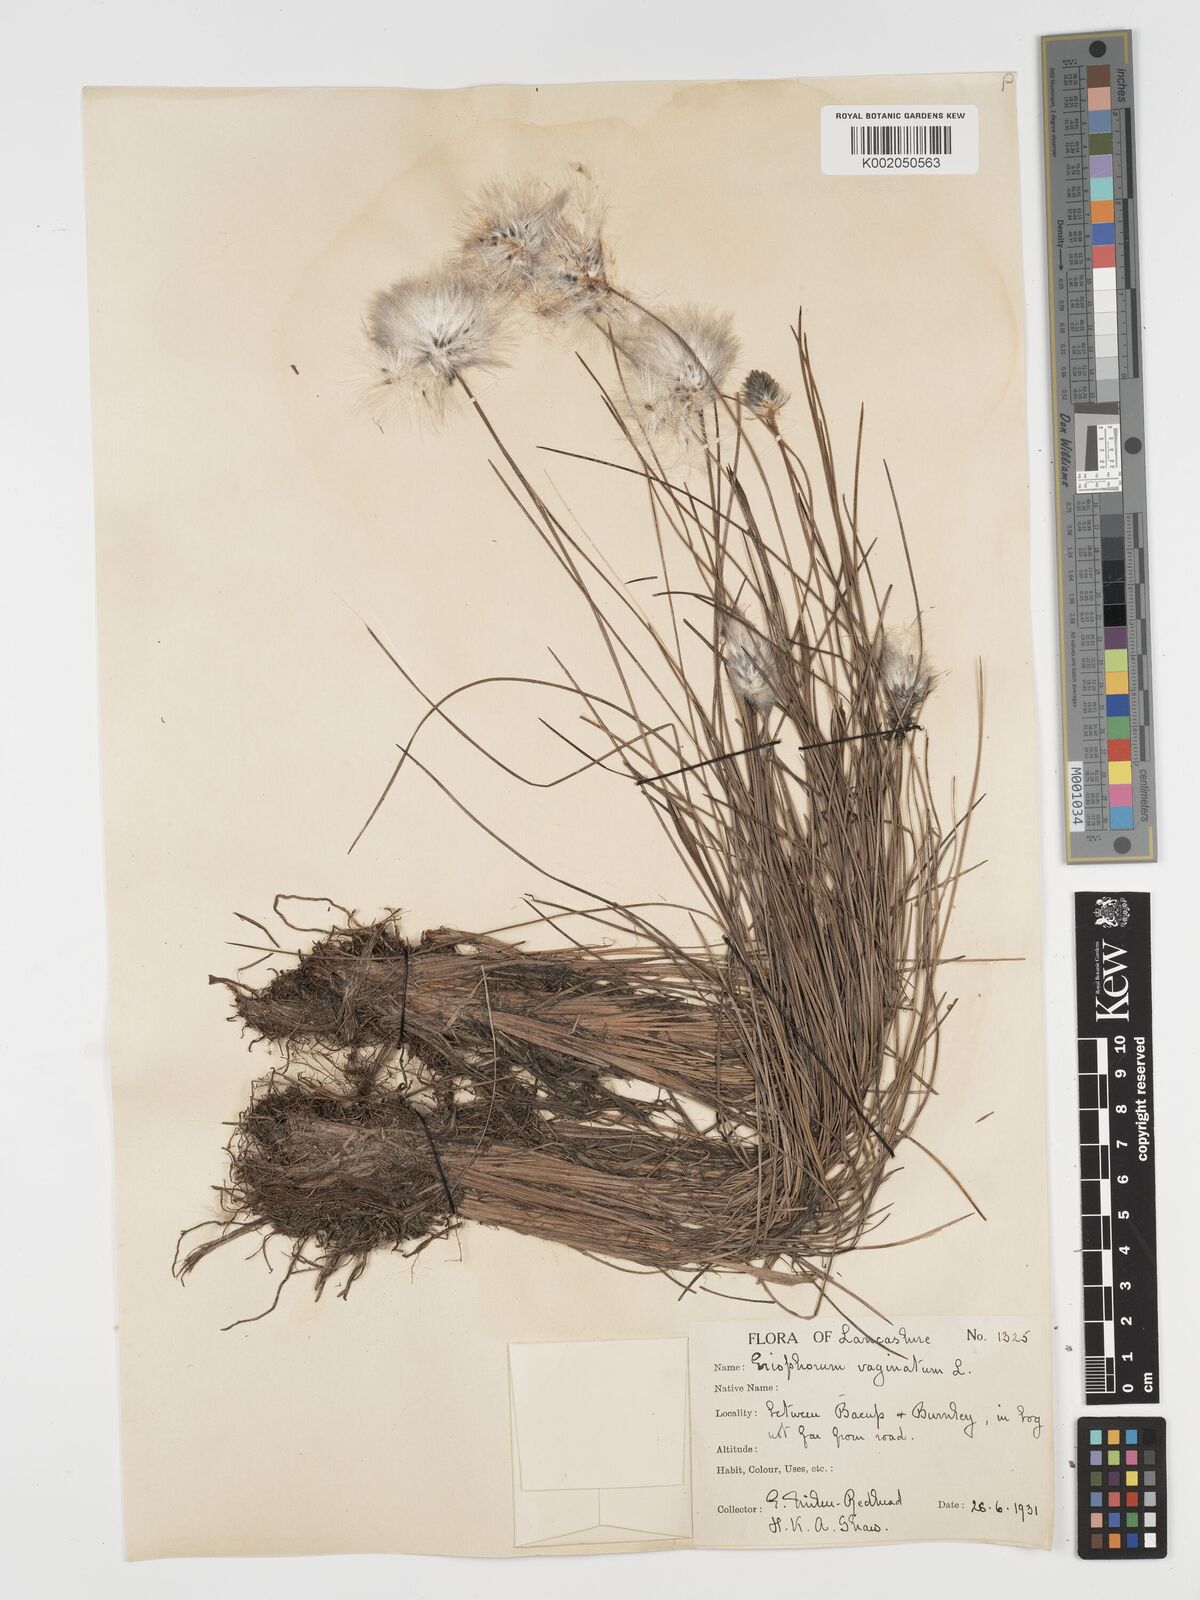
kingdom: Plantae
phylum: Tracheophyta
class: Liliopsida
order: Poales
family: Cyperaceae
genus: Eriophorum
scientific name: Eriophorum vaginatum
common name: Hare's-tail cottongrass
